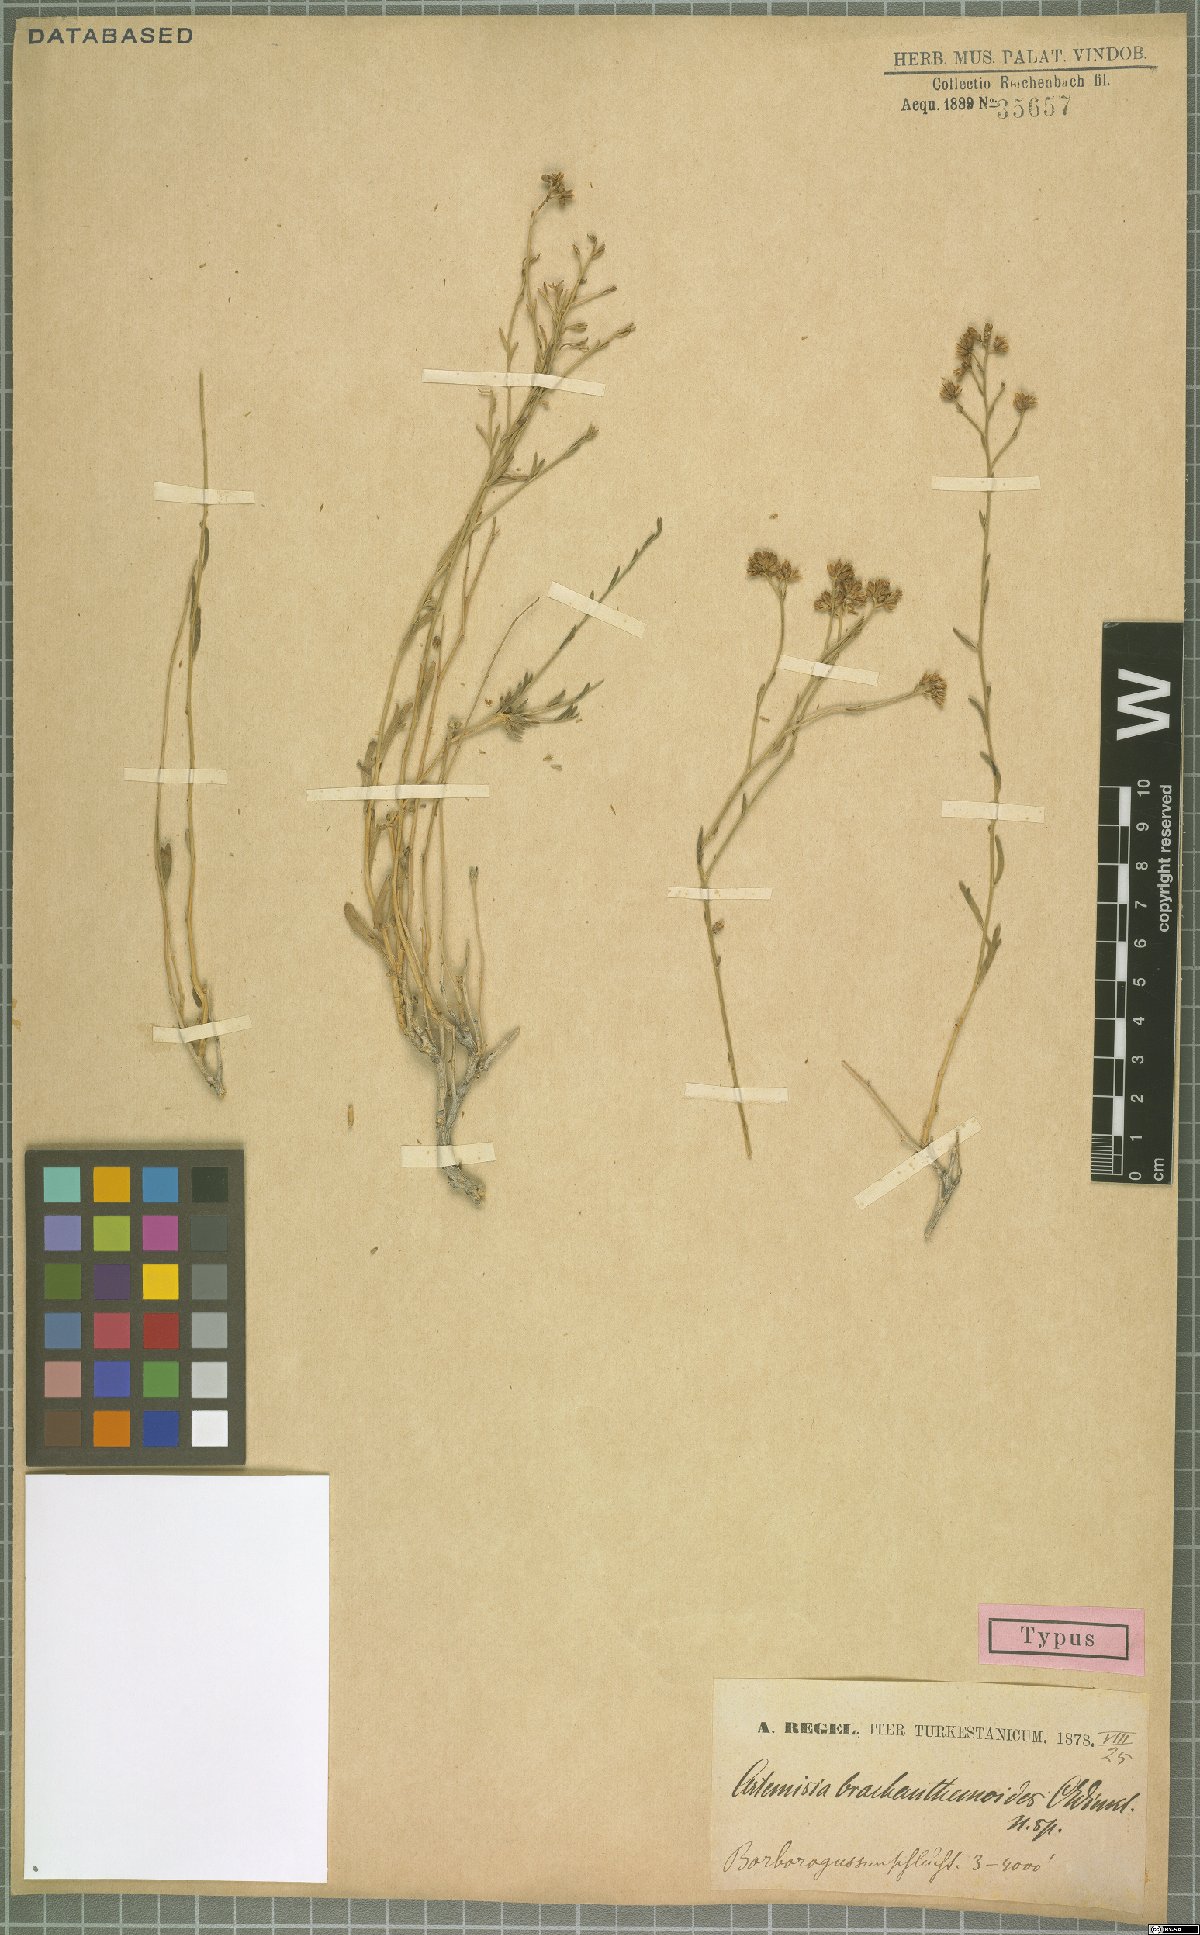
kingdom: Plantae
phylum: Tracheophyta
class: Magnoliopsida
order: Asterales
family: Asteraceae
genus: Kaschgaria
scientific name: Kaschgaria brachanthemoides
